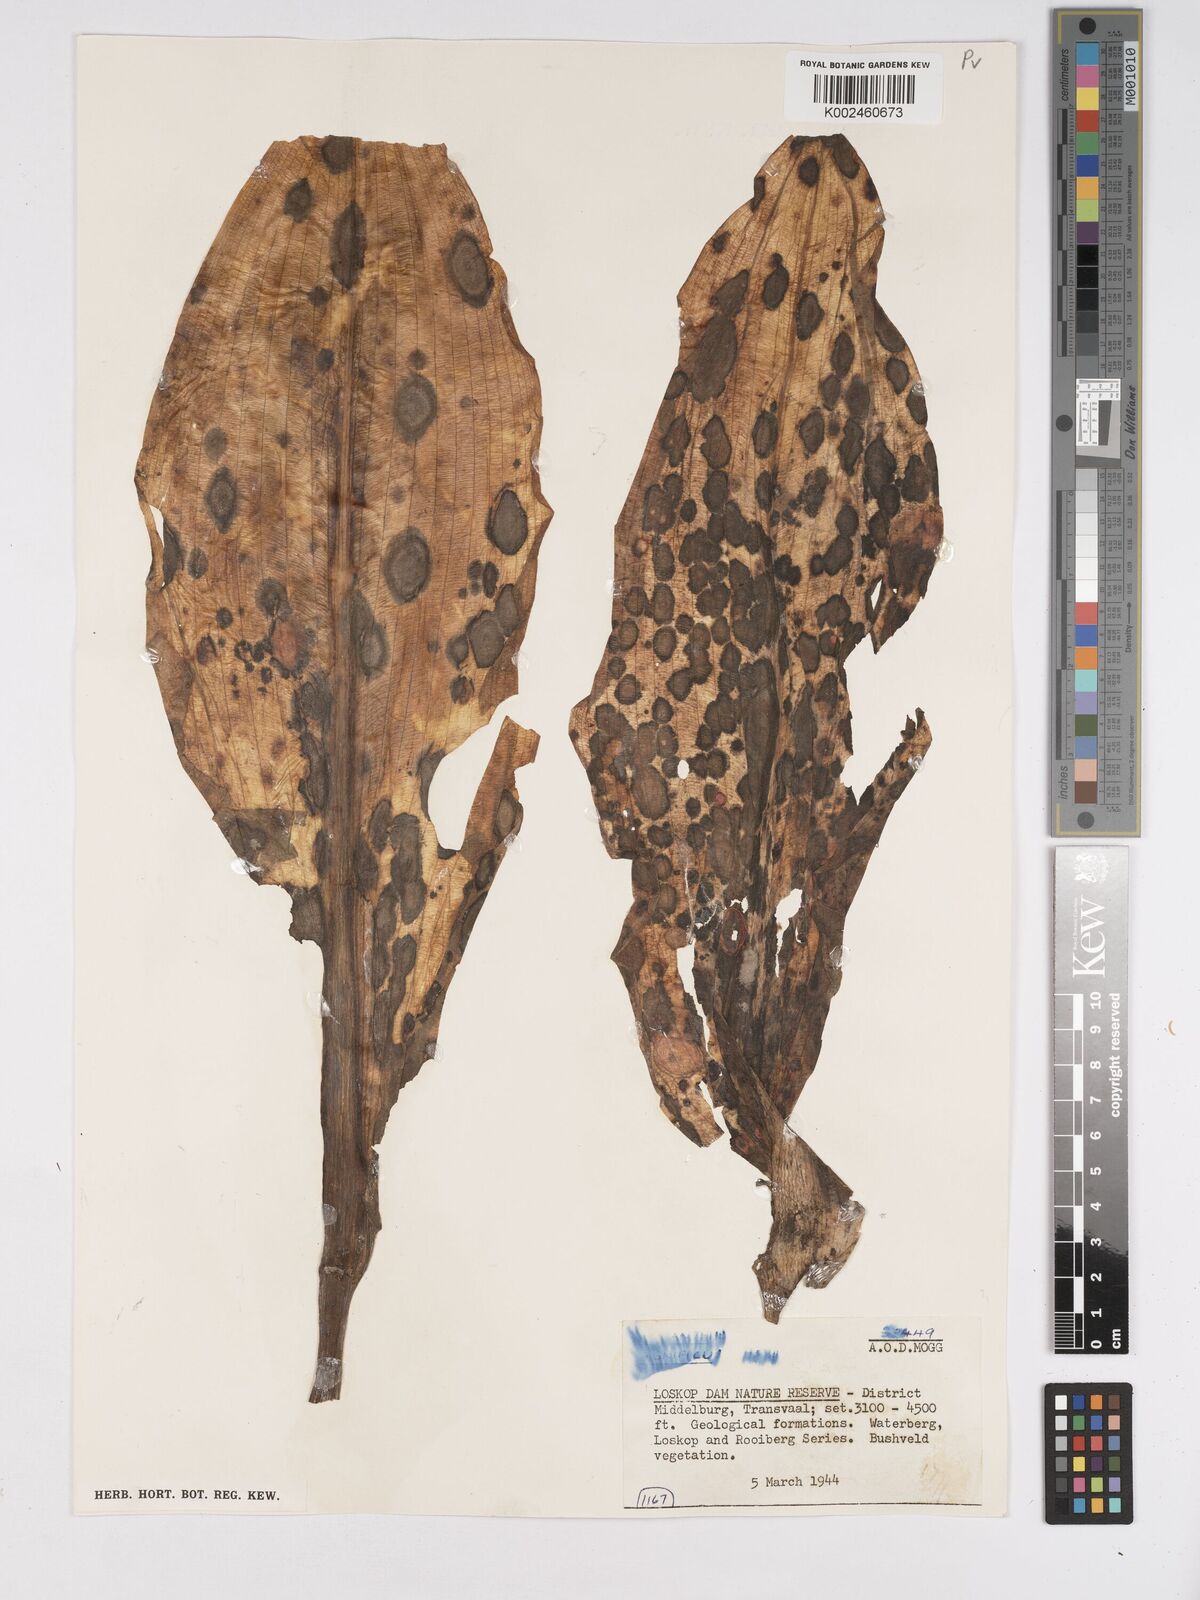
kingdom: Plantae
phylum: Tracheophyta
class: Liliopsida
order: Asparagales
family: Amaryllidaceae
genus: Scadoxus
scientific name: Scadoxus puniceus
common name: Royal-paintbrush
